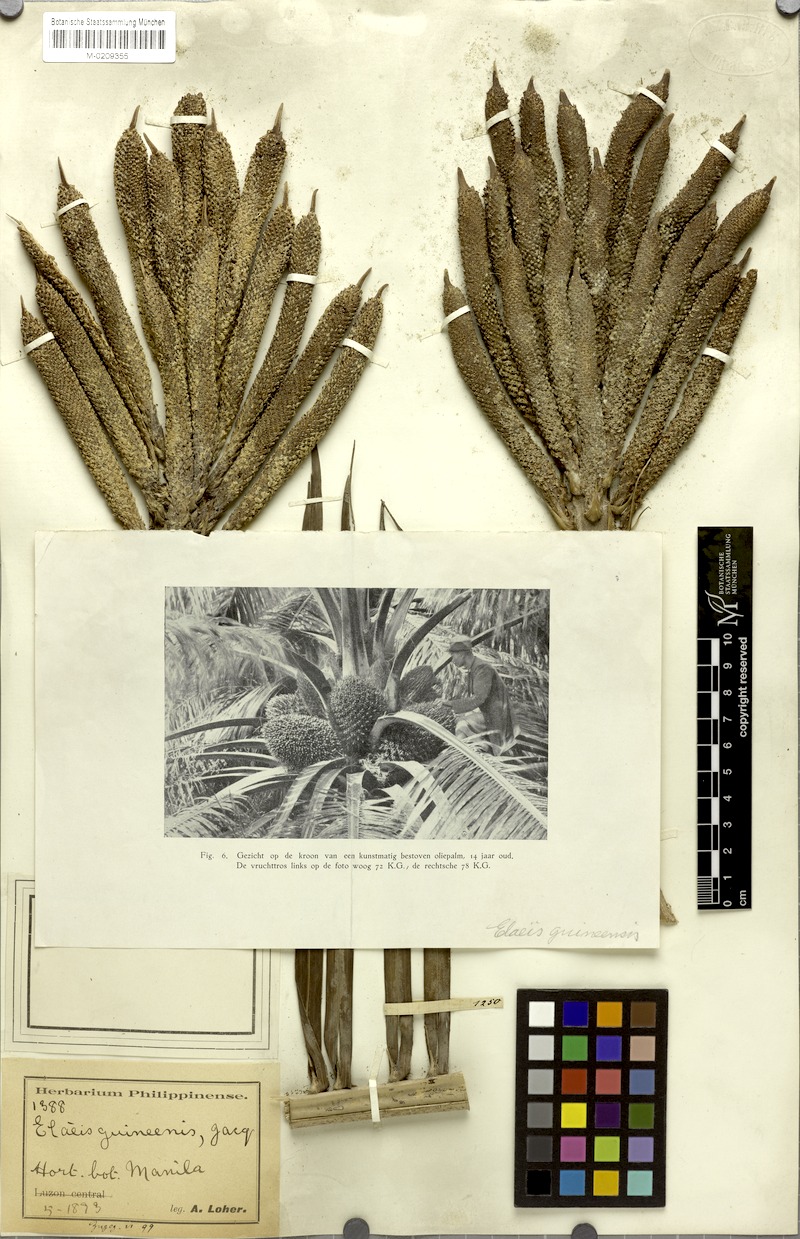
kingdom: Plantae
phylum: Tracheophyta
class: Liliopsida
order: Arecales
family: Arecaceae
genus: Elaeis
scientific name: Elaeis guineensis
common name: Oil palm
